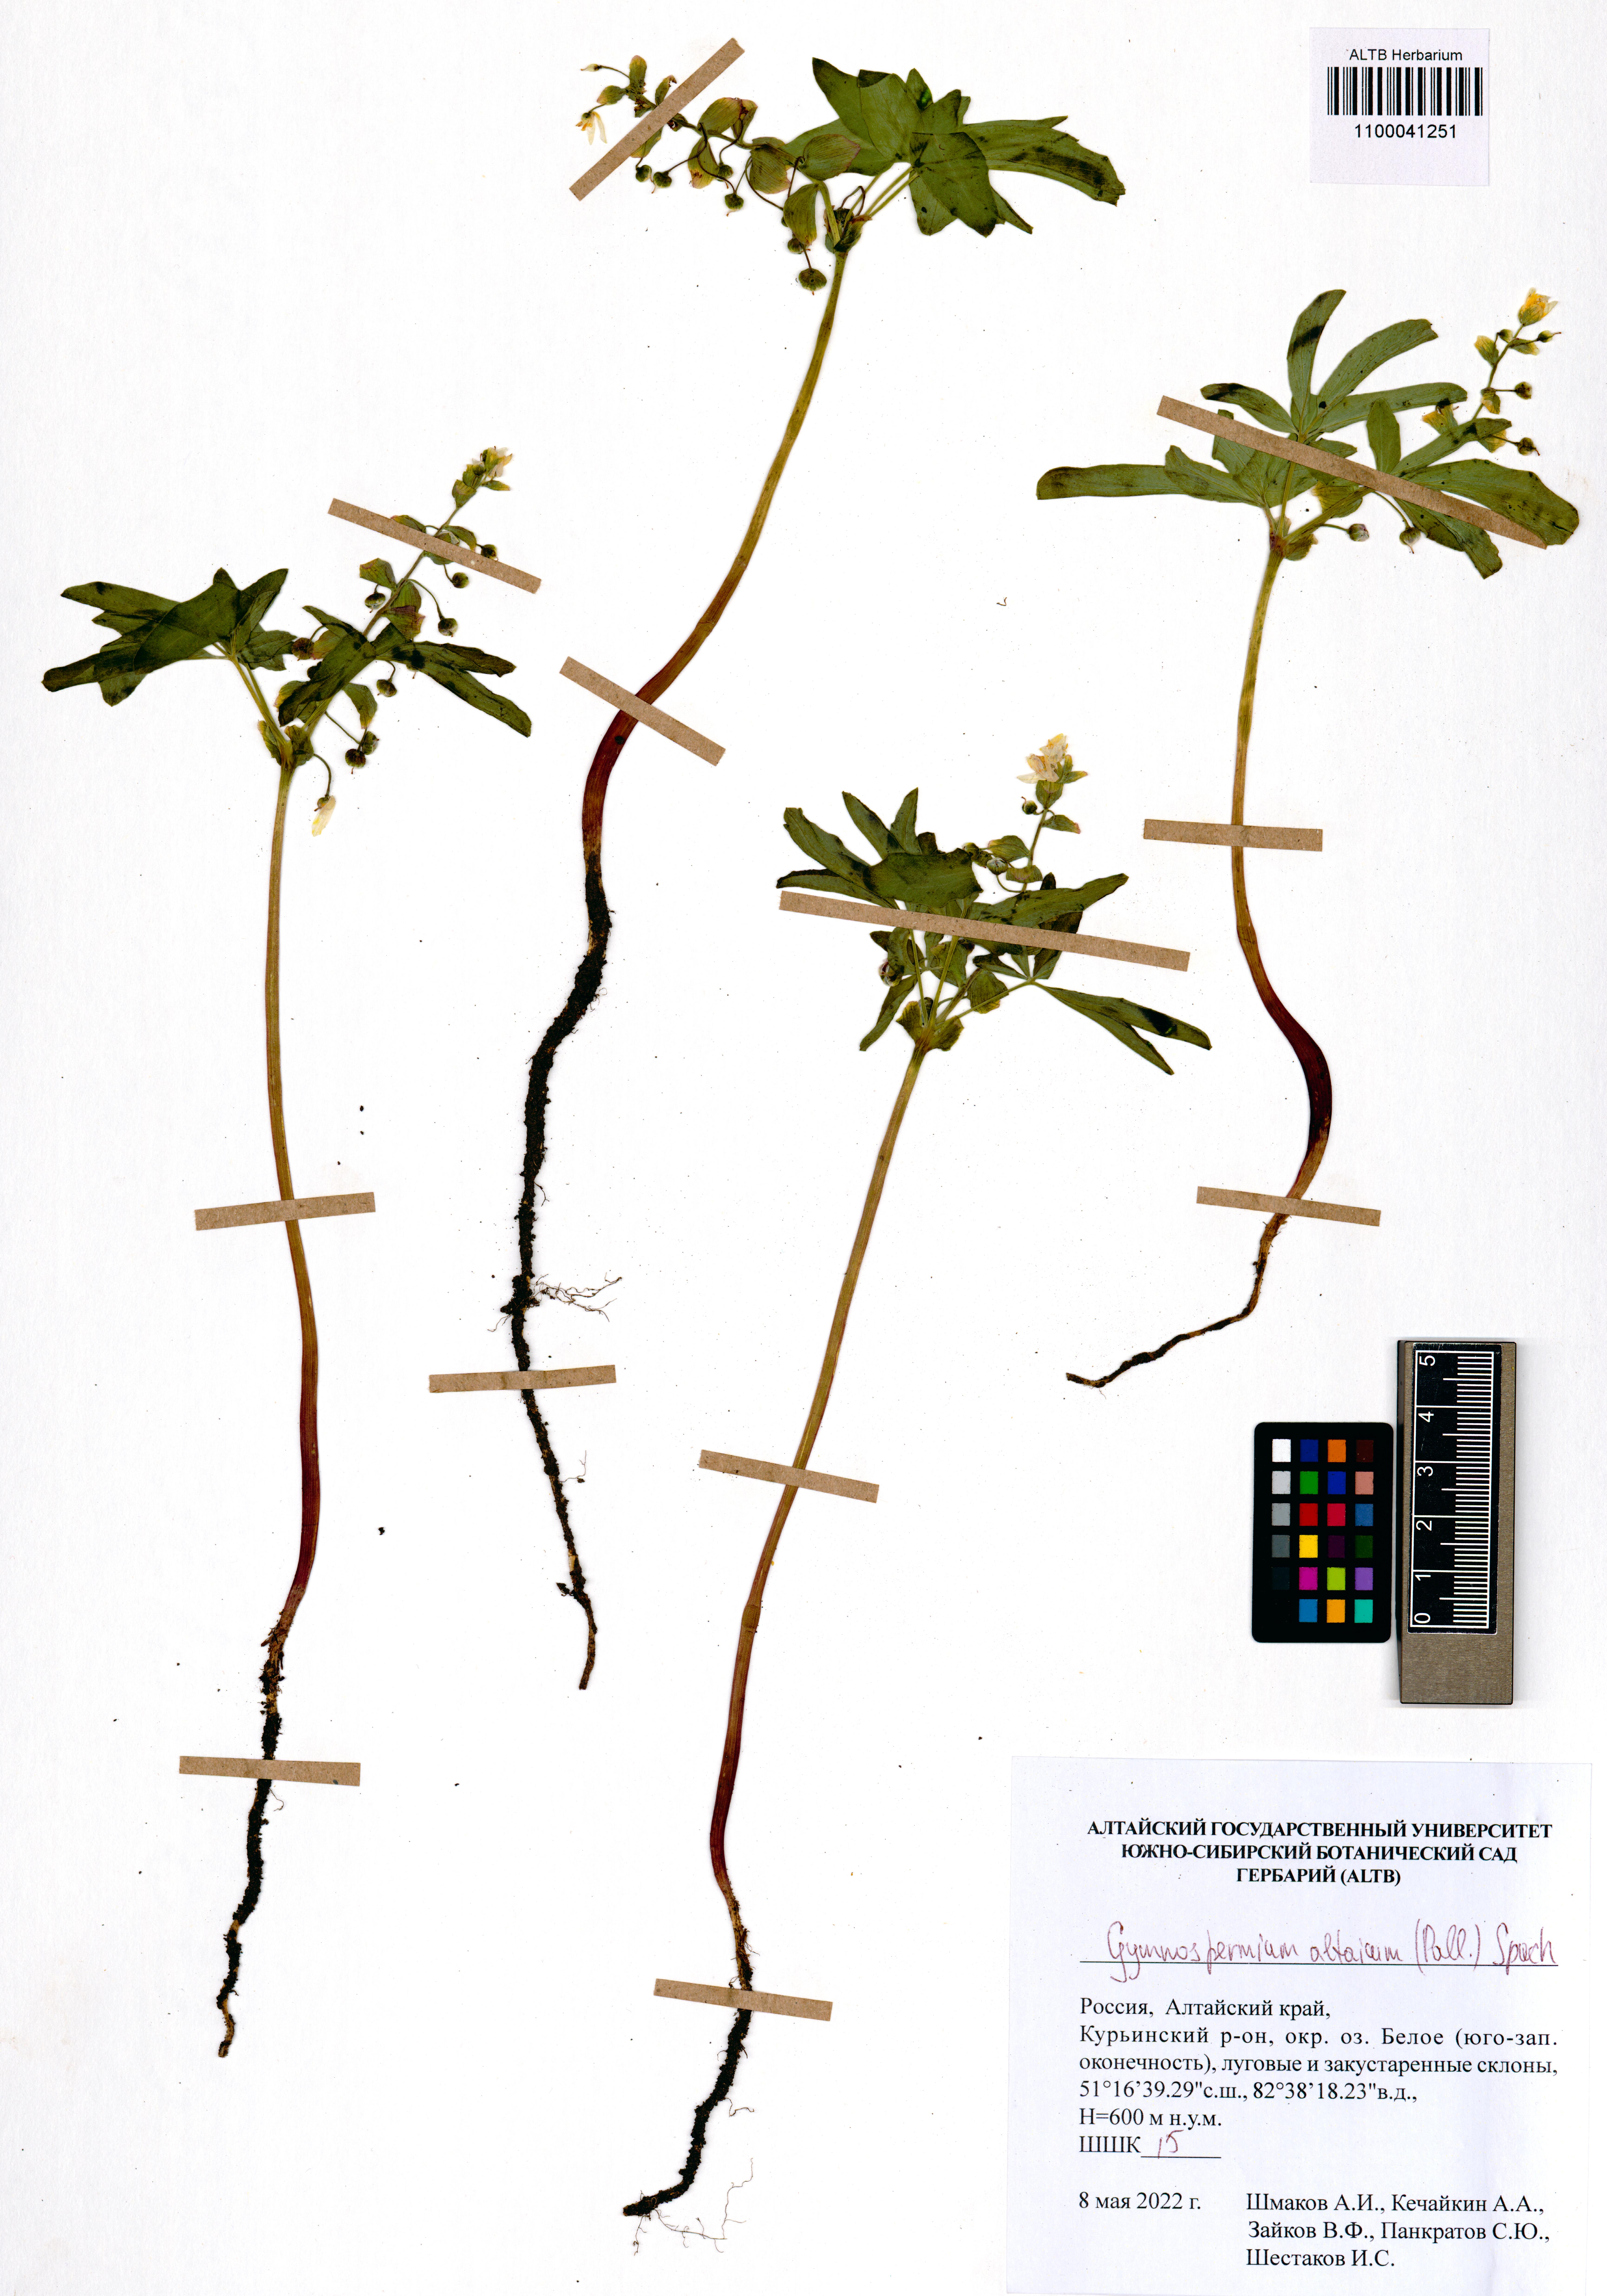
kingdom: Plantae
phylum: Tracheophyta
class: Magnoliopsida
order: Ranunculales
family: Berberidaceae
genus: Gymnospermium
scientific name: Gymnospermium altaicum
